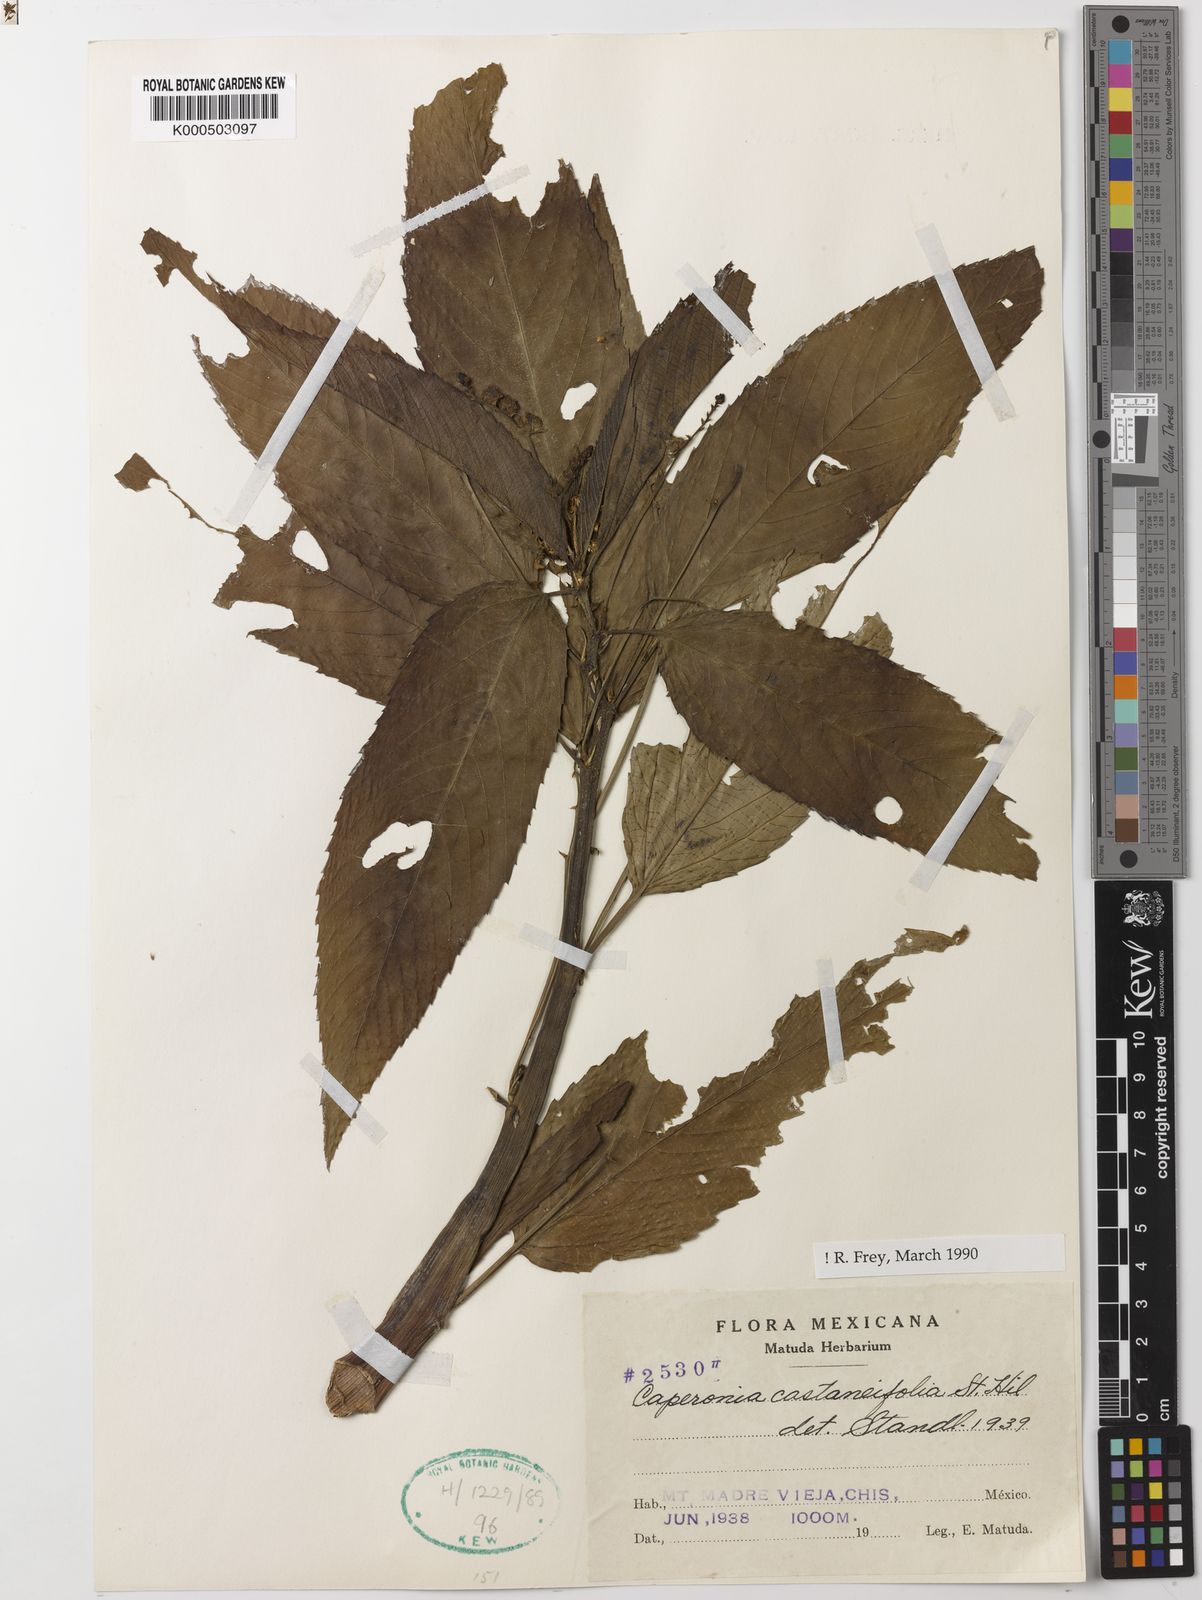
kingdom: Plantae
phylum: Tracheophyta
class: Magnoliopsida
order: Malpighiales
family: Euphorbiaceae
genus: Caperonia
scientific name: Caperonia castaneifolia
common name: Chestnutleaf false croton
